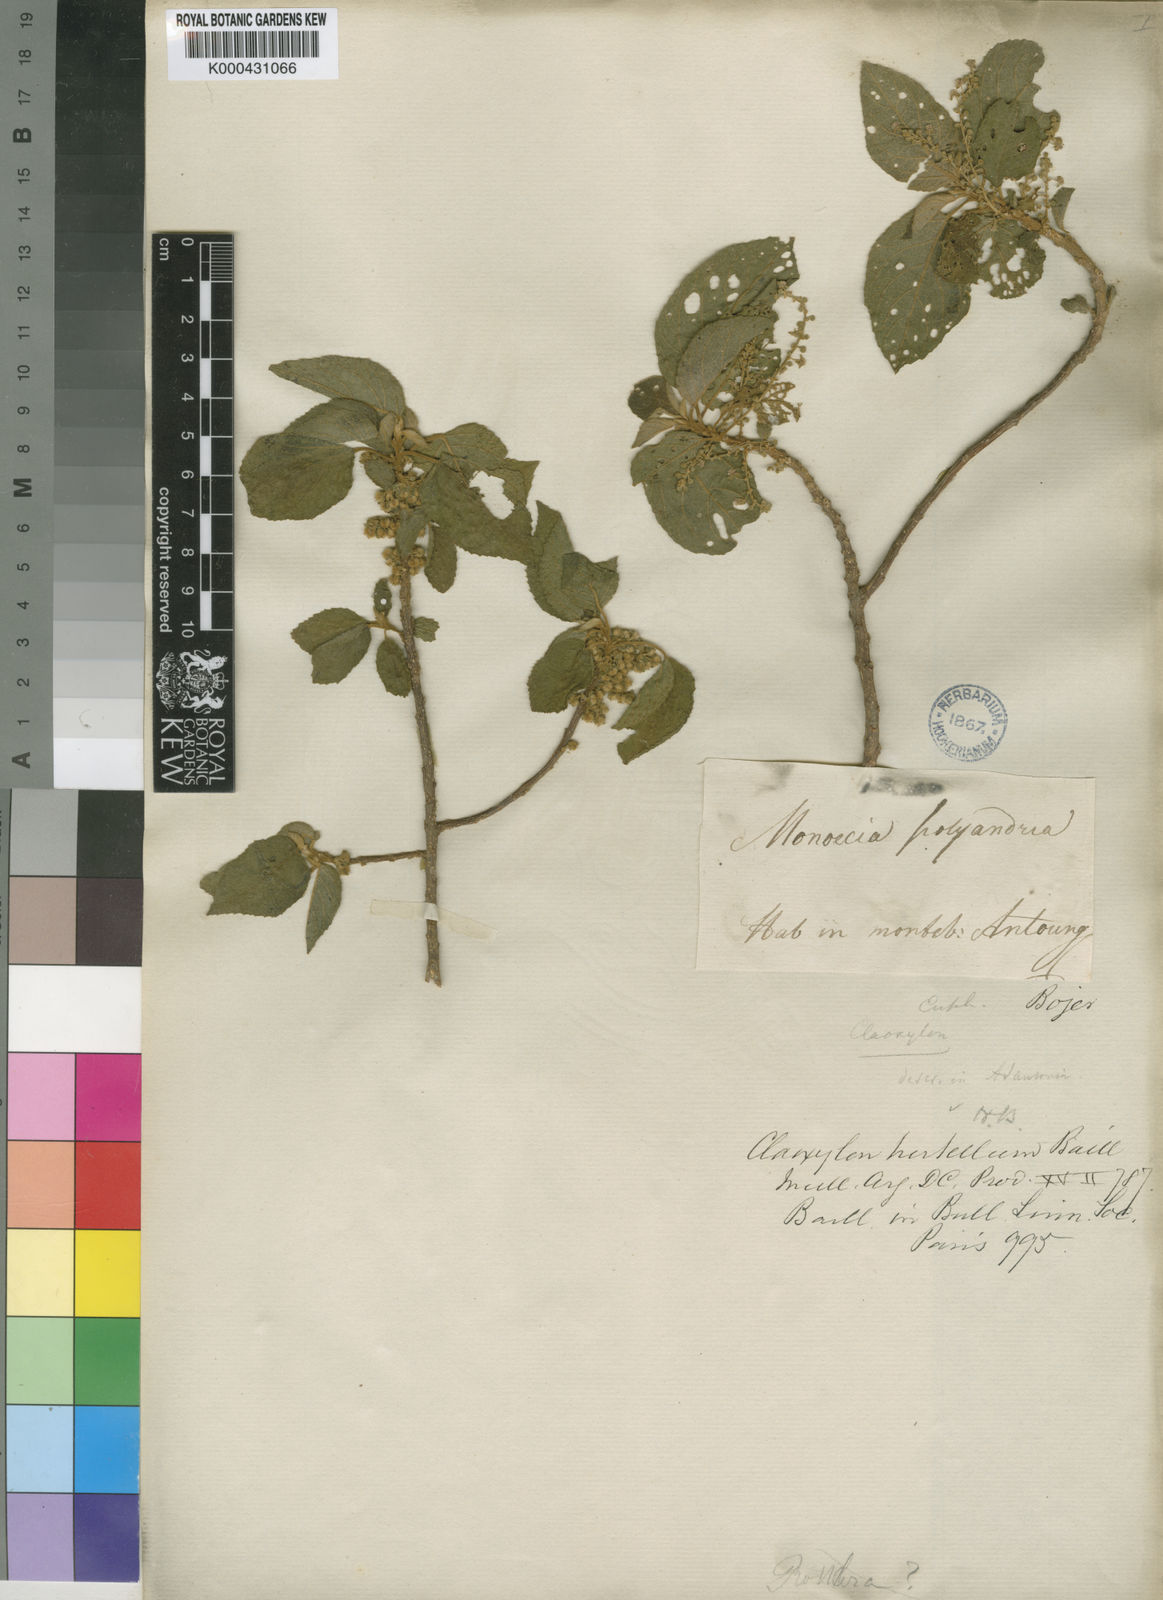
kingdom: Plantae
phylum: Tracheophyta
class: Magnoliopsida
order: Malpighiales
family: Euphorbiaceae
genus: Lobanilia
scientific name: Lobanilia asterothrix
